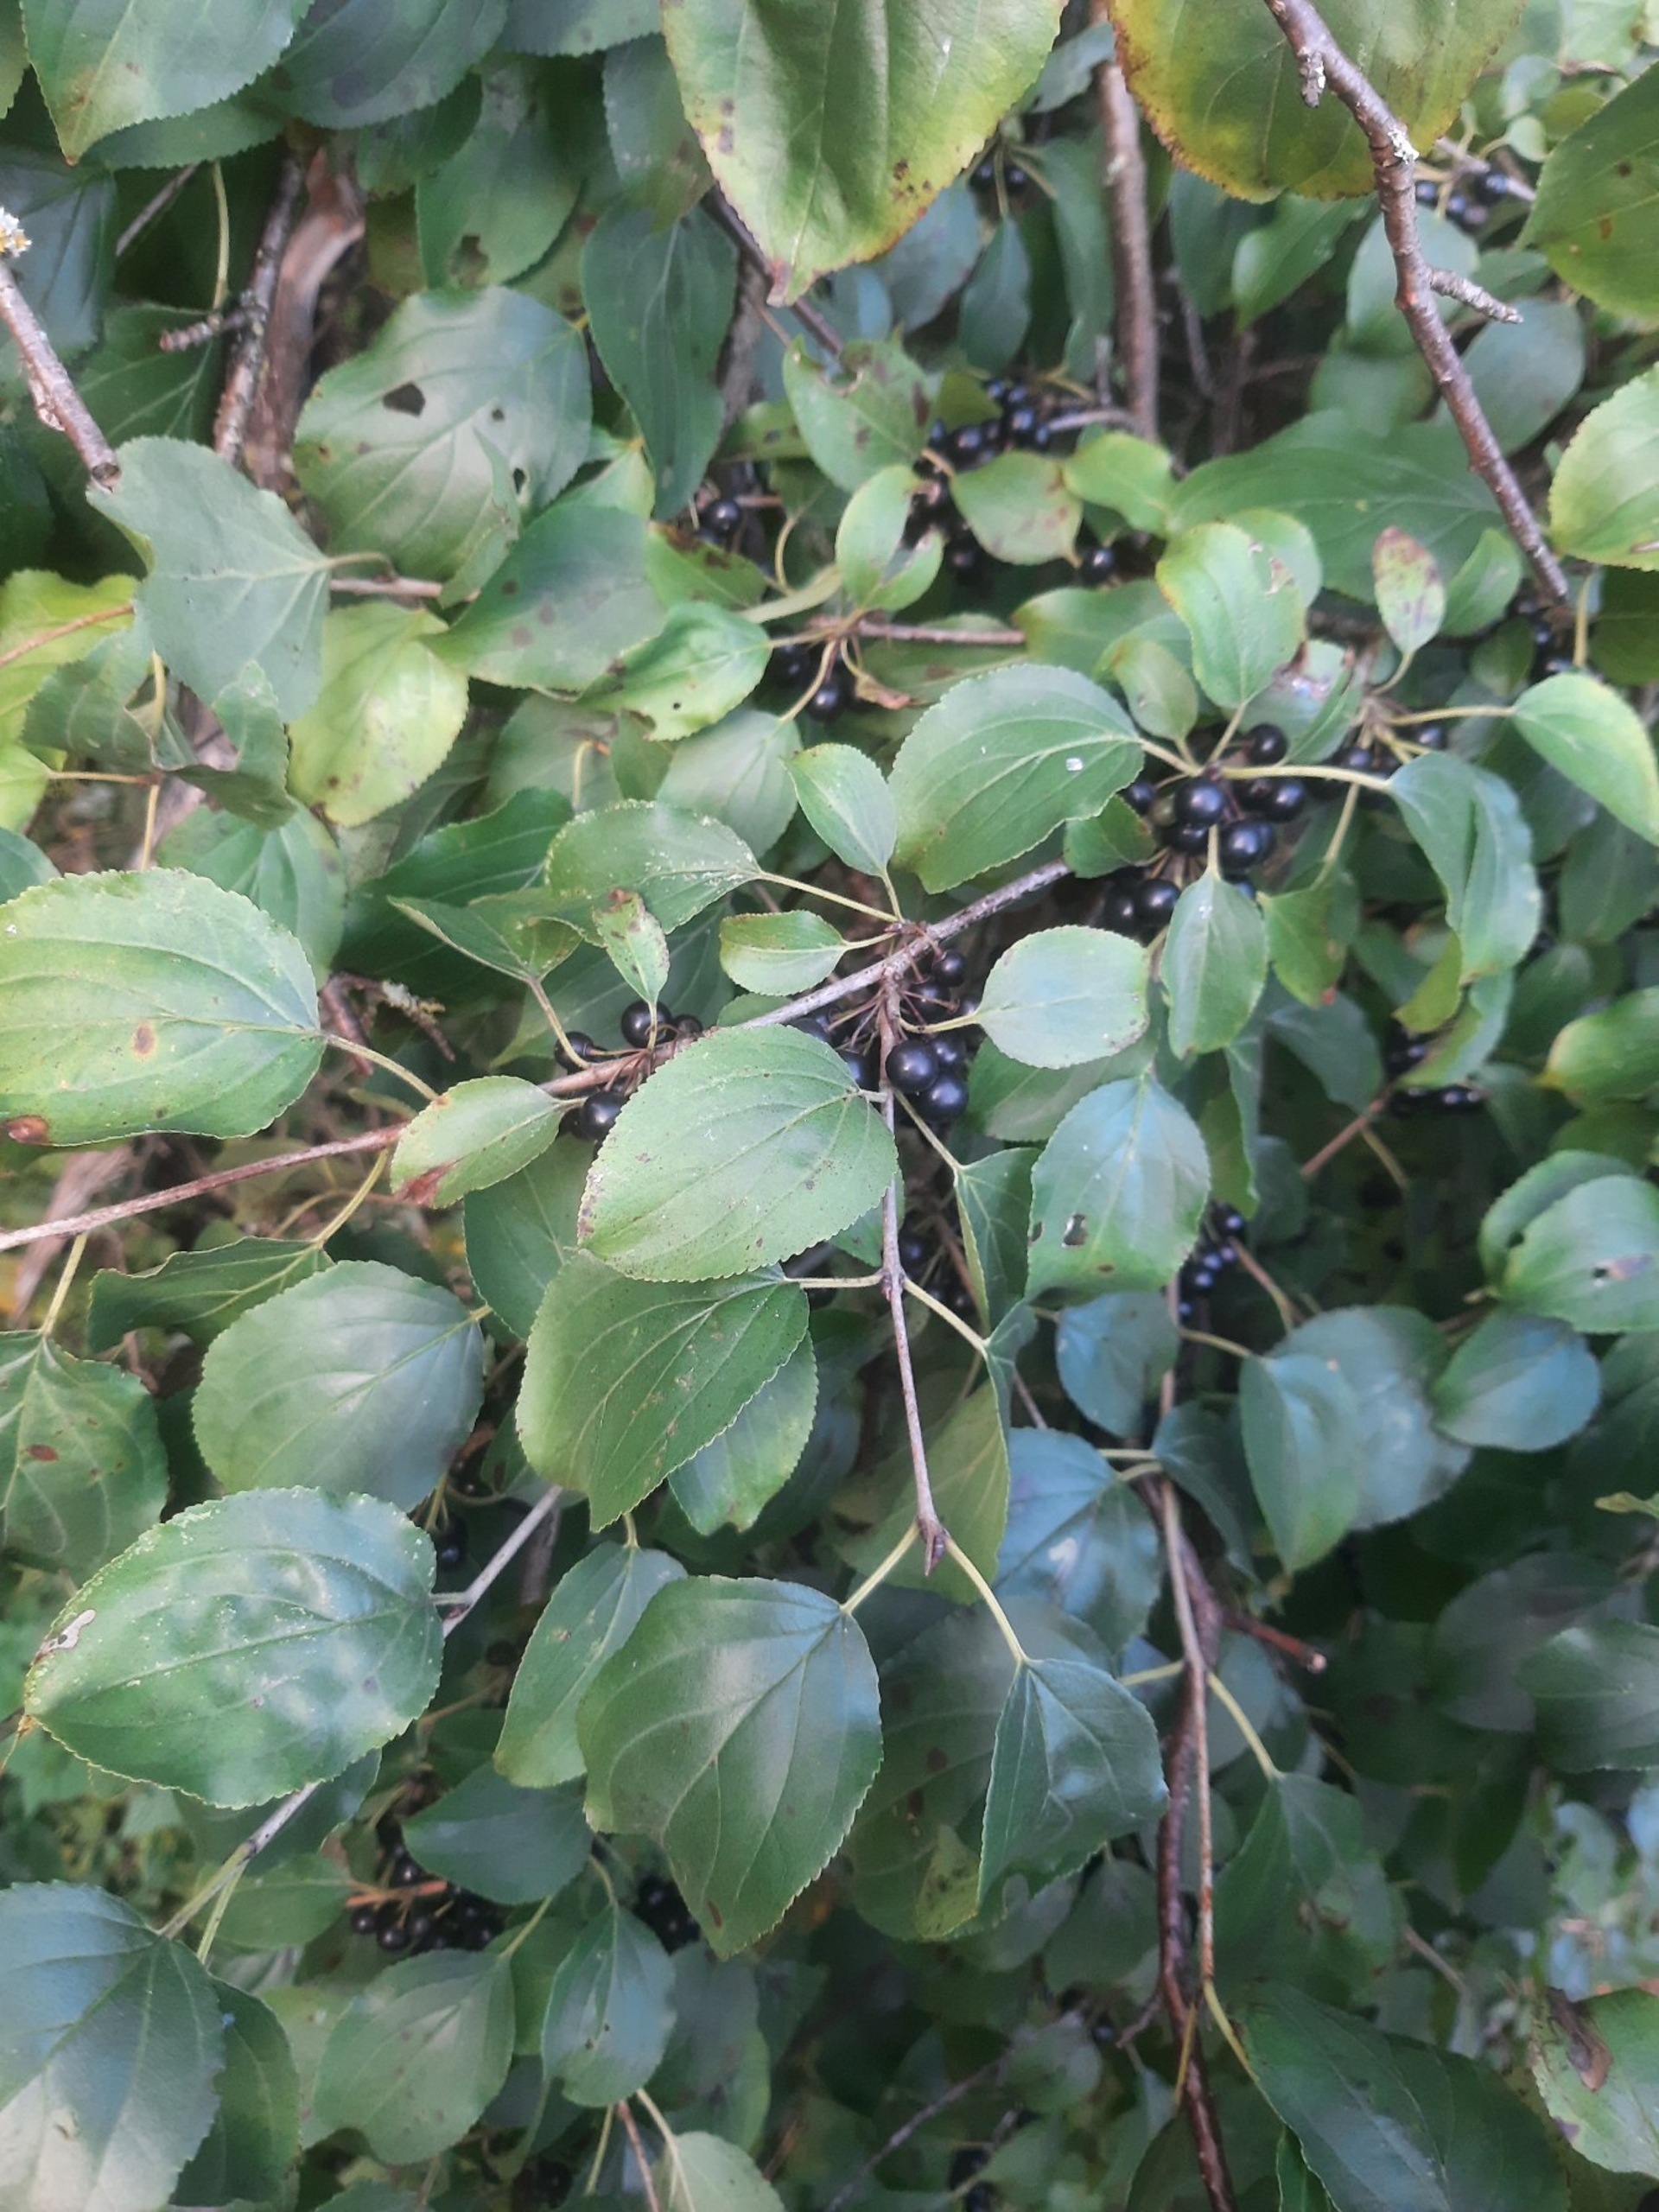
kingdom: Plantae
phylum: Tracheophyta
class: Magnoliopsida
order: Rosales
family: Rhamnaceae
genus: Rhamnus
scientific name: Rhamnus cathartica
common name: Vrietorn
